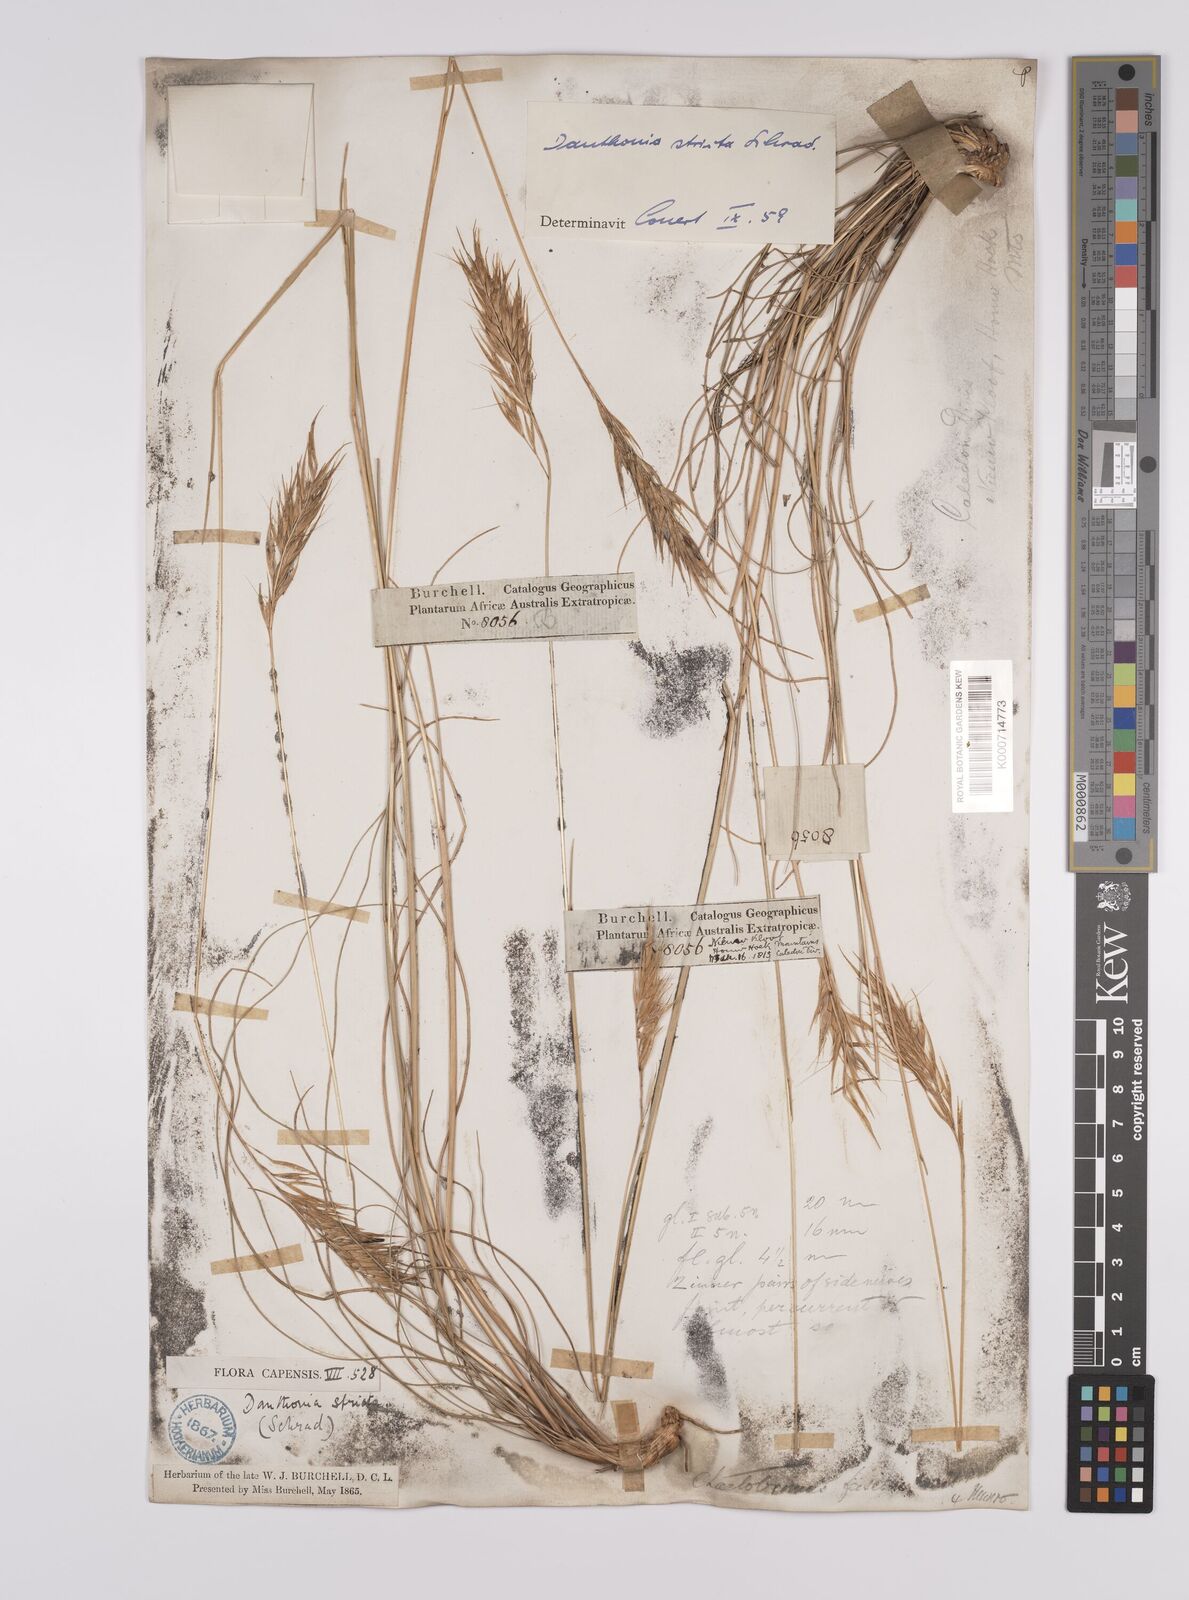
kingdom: Plantae
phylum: Tracheophyta
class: Liliopsida
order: Poales
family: Poaceae
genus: Rytidosperma
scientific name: Rytidosperma
